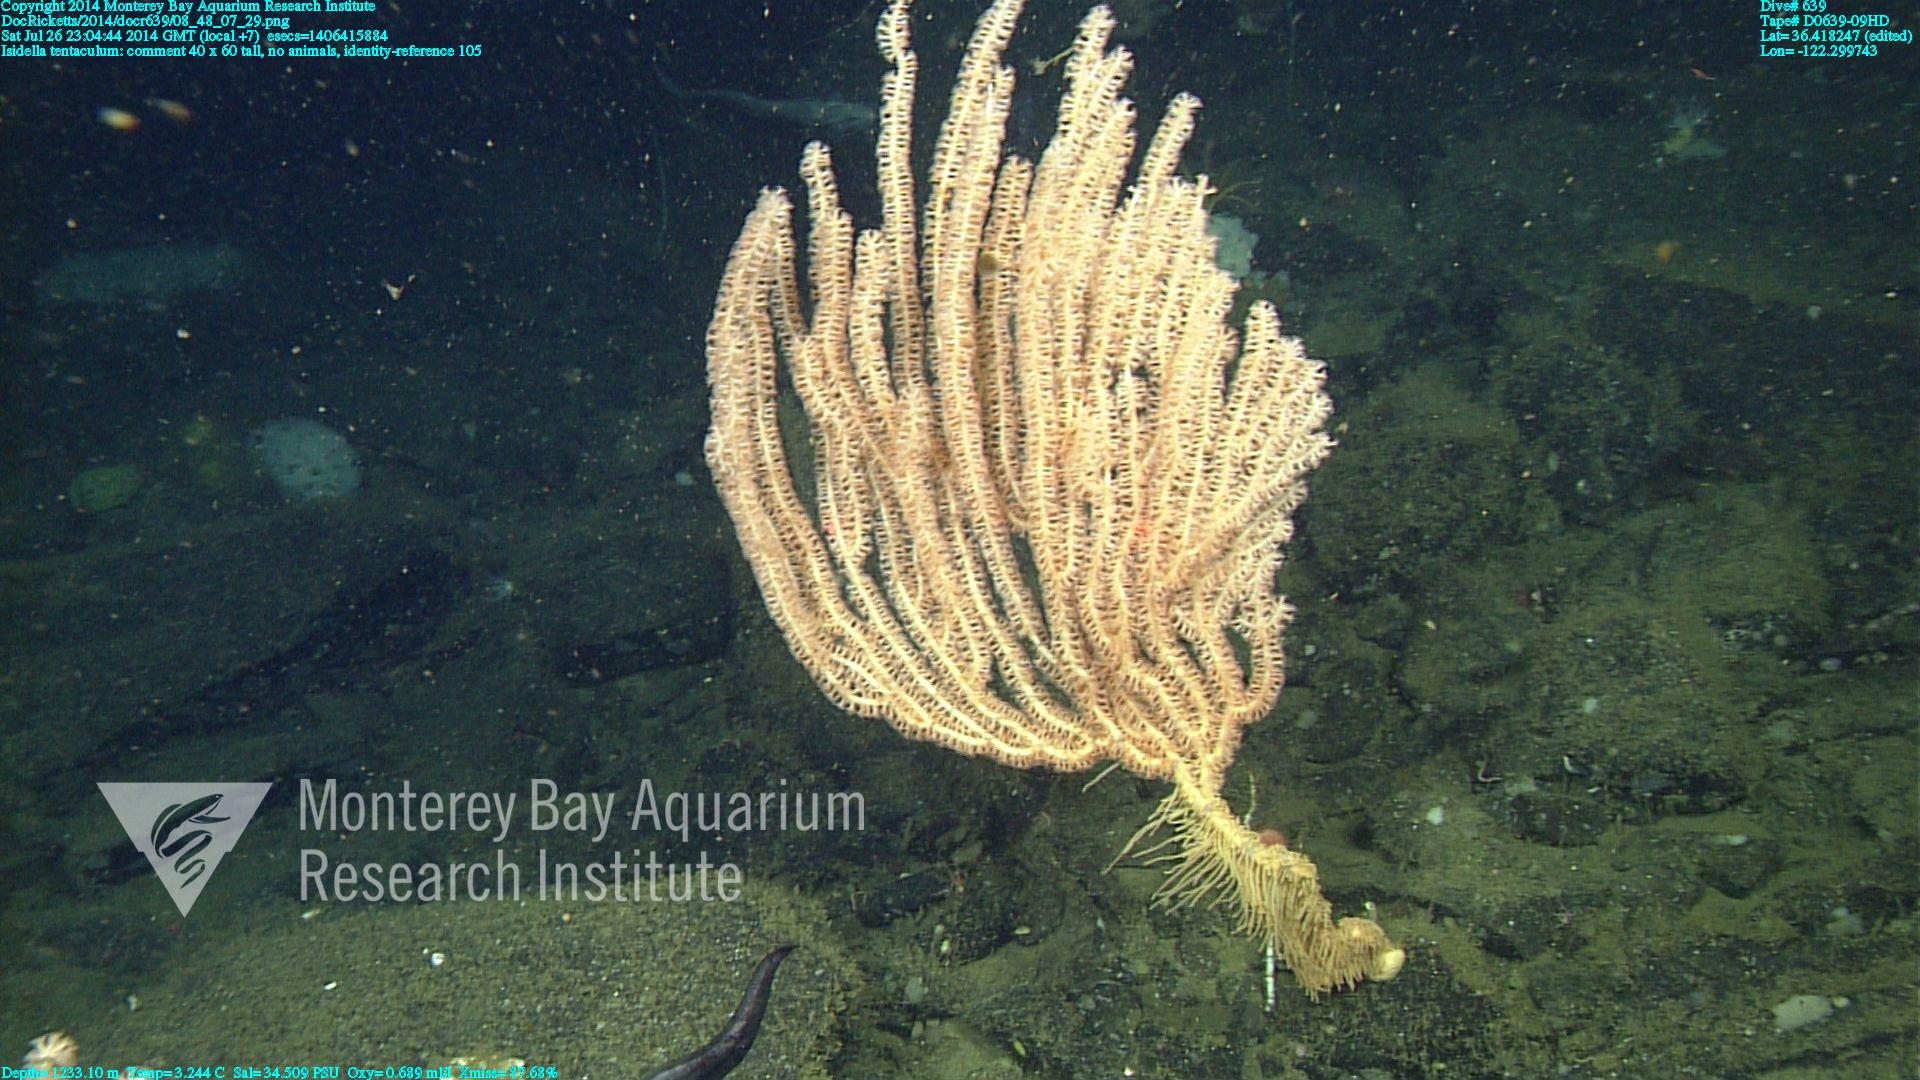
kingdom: Animalia
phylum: Cnidaria
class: Anthozoa
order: Scleralcyonacea
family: Keratoisididae
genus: Isidella
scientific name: Isidella tentaculum
